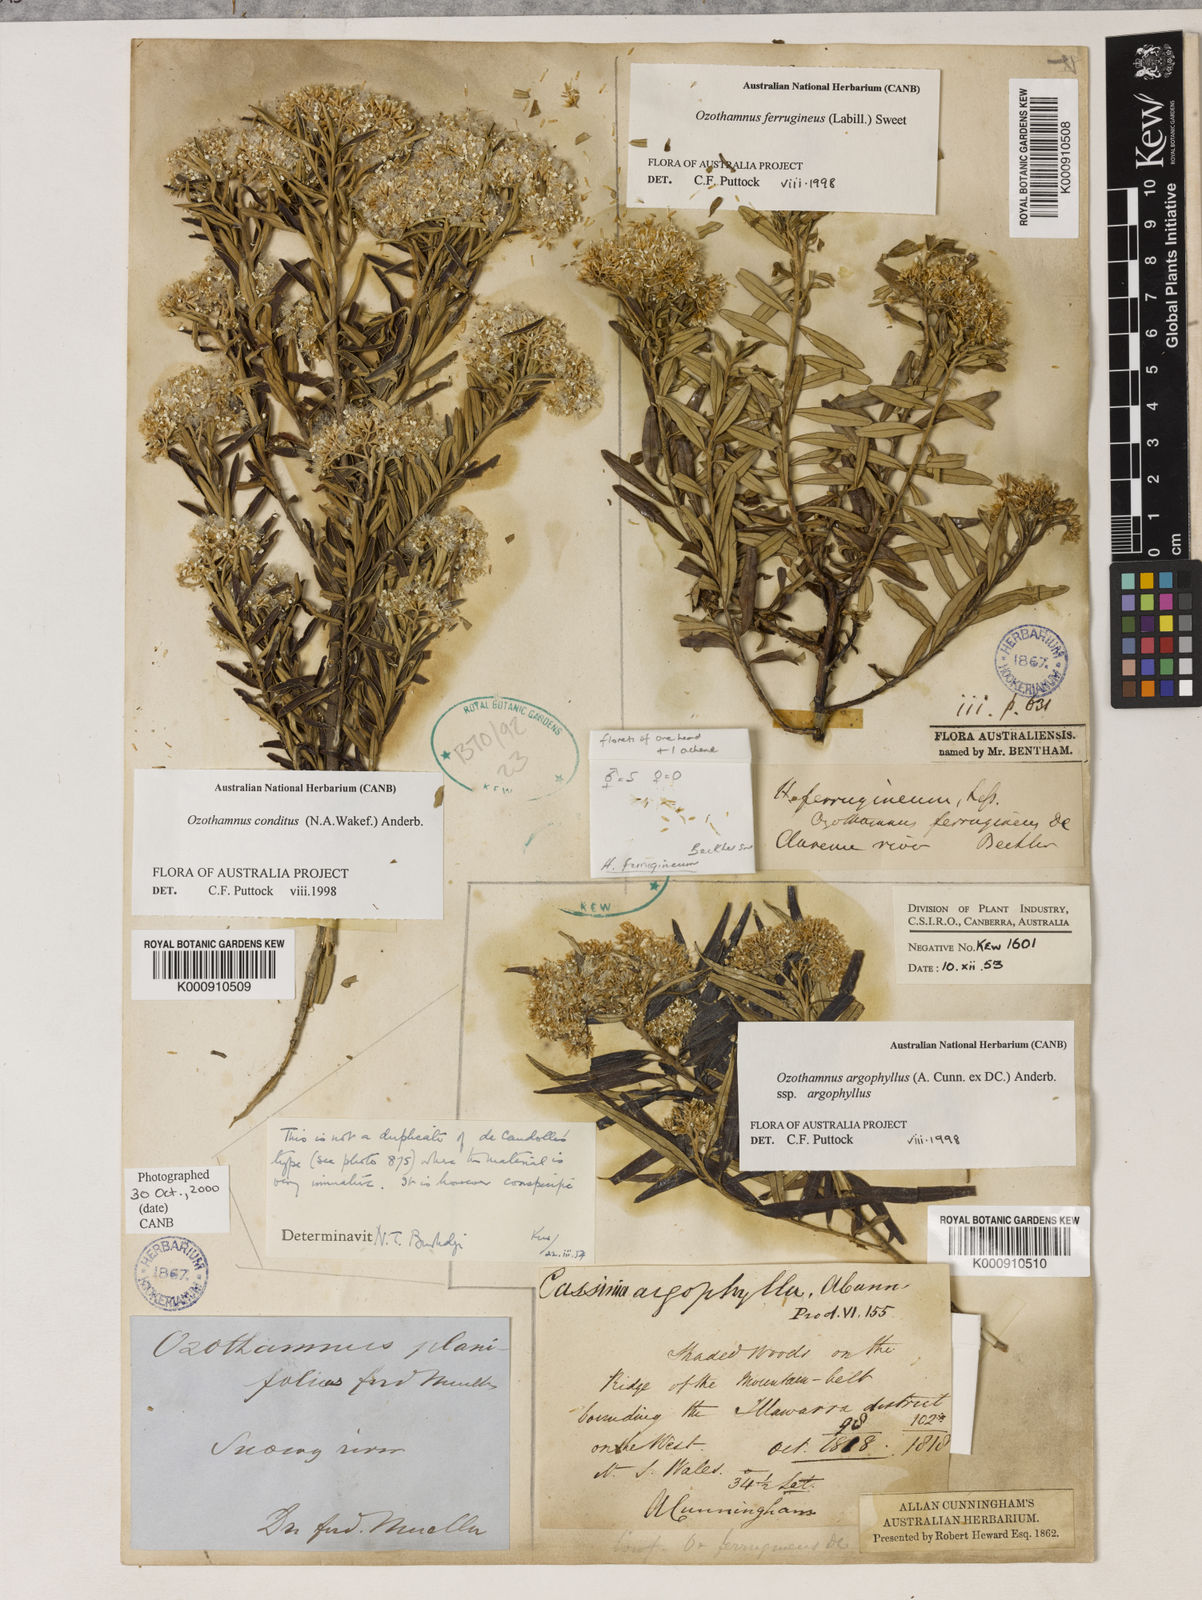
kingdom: Plantae
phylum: Tracheophyta
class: Magnoliopsida
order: Asterales
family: Asteraceae
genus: Ozothamnus
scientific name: Ozothamnus argophyllus
